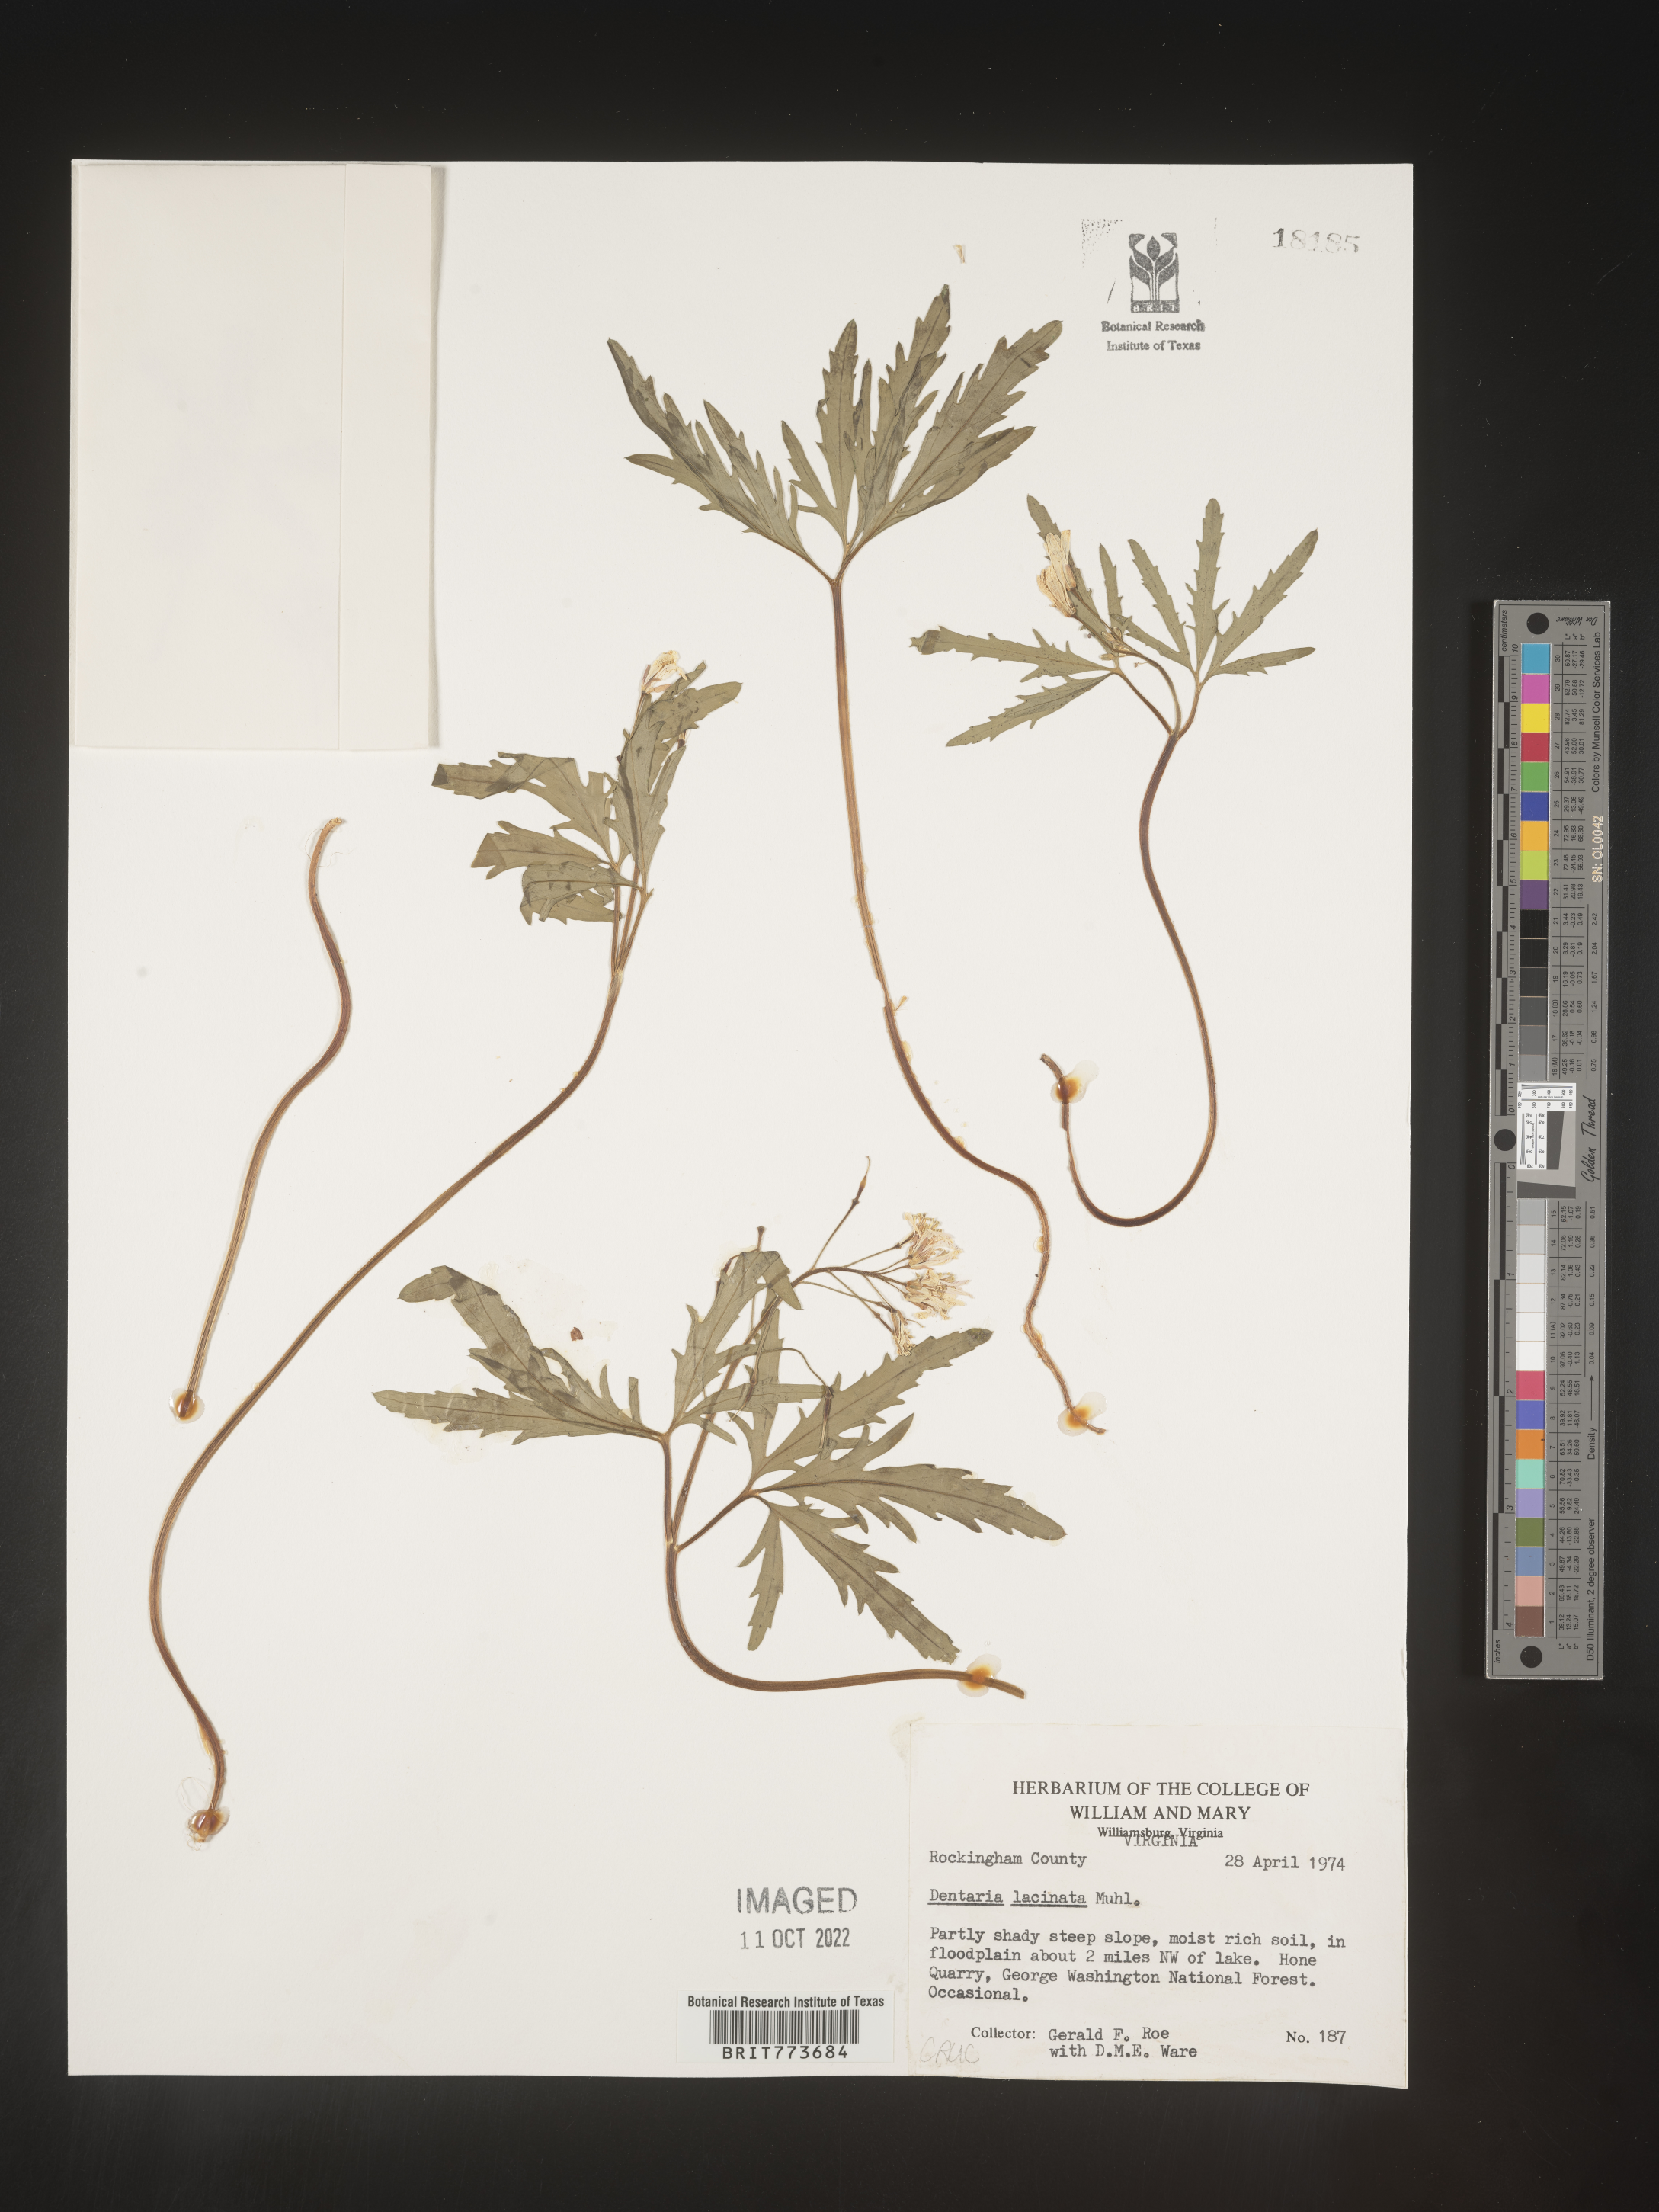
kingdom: Plantae
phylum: Tracheophyta
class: Magnoliopsida
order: Brassicales
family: Brassicaceae
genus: Rorippa
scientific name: Rorippa laciniata
